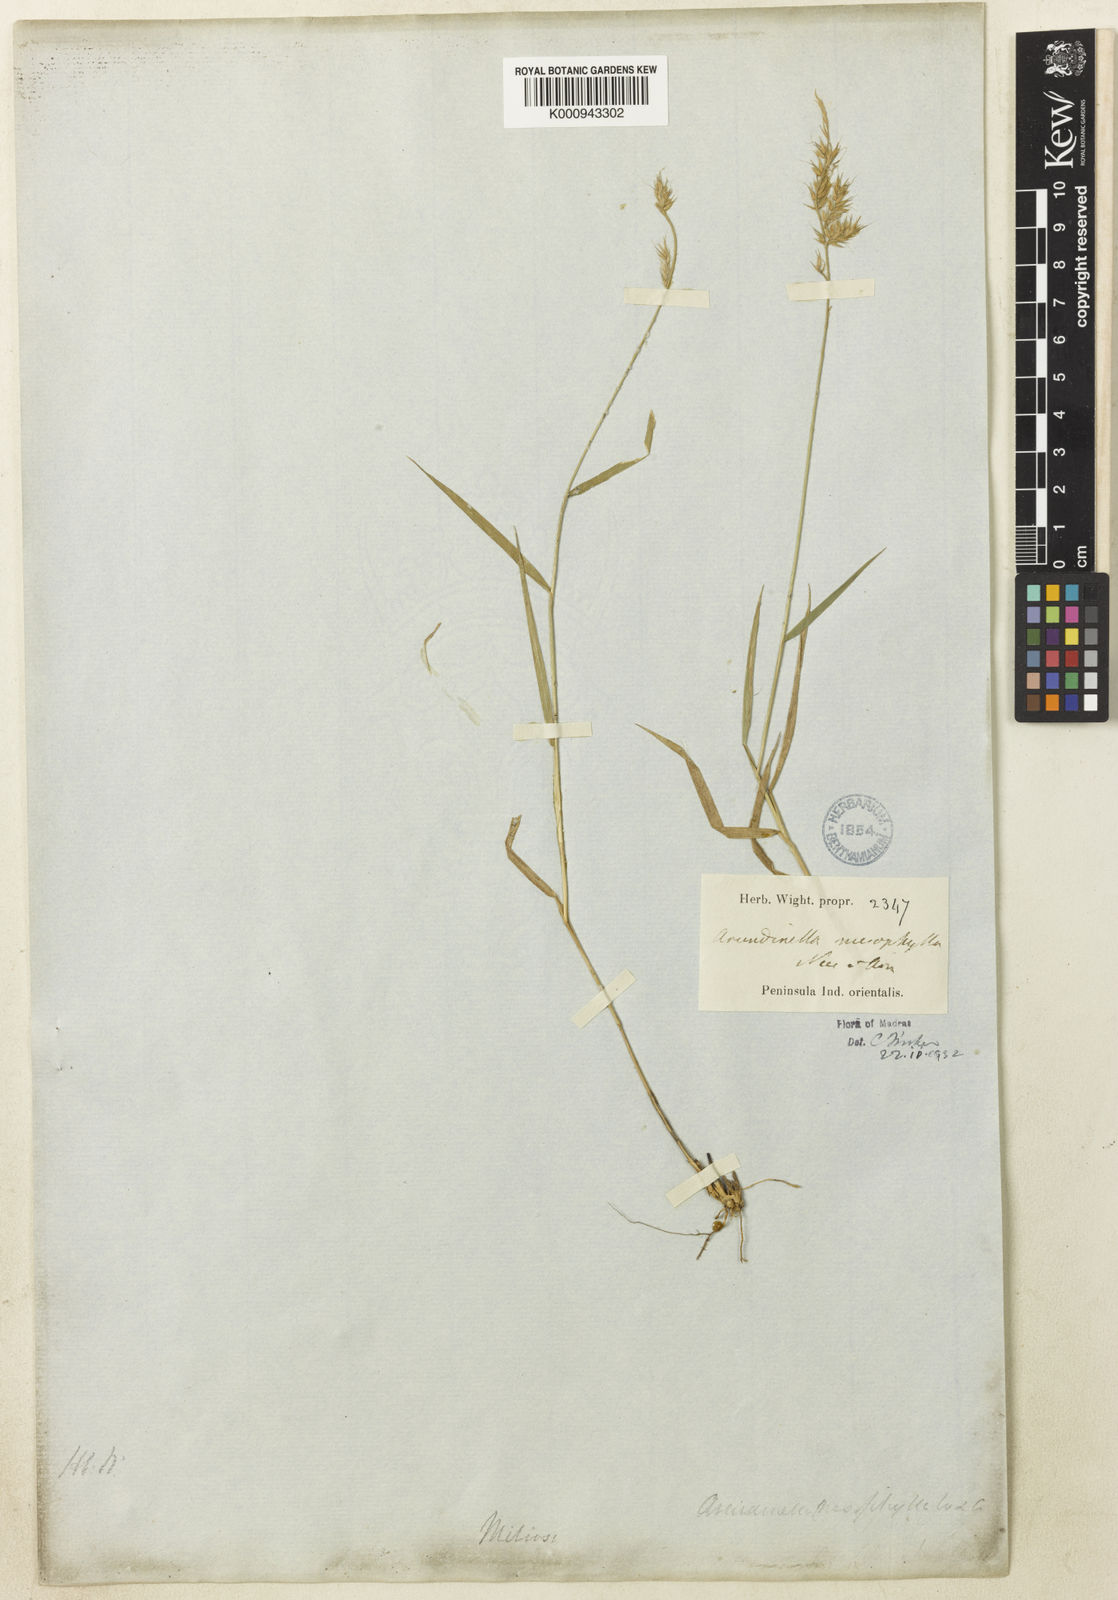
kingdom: Plantae
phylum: Tracheophyta
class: Liliopsida
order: Poales
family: Poaceae
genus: Arundinella
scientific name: Arundinella mesophylla
